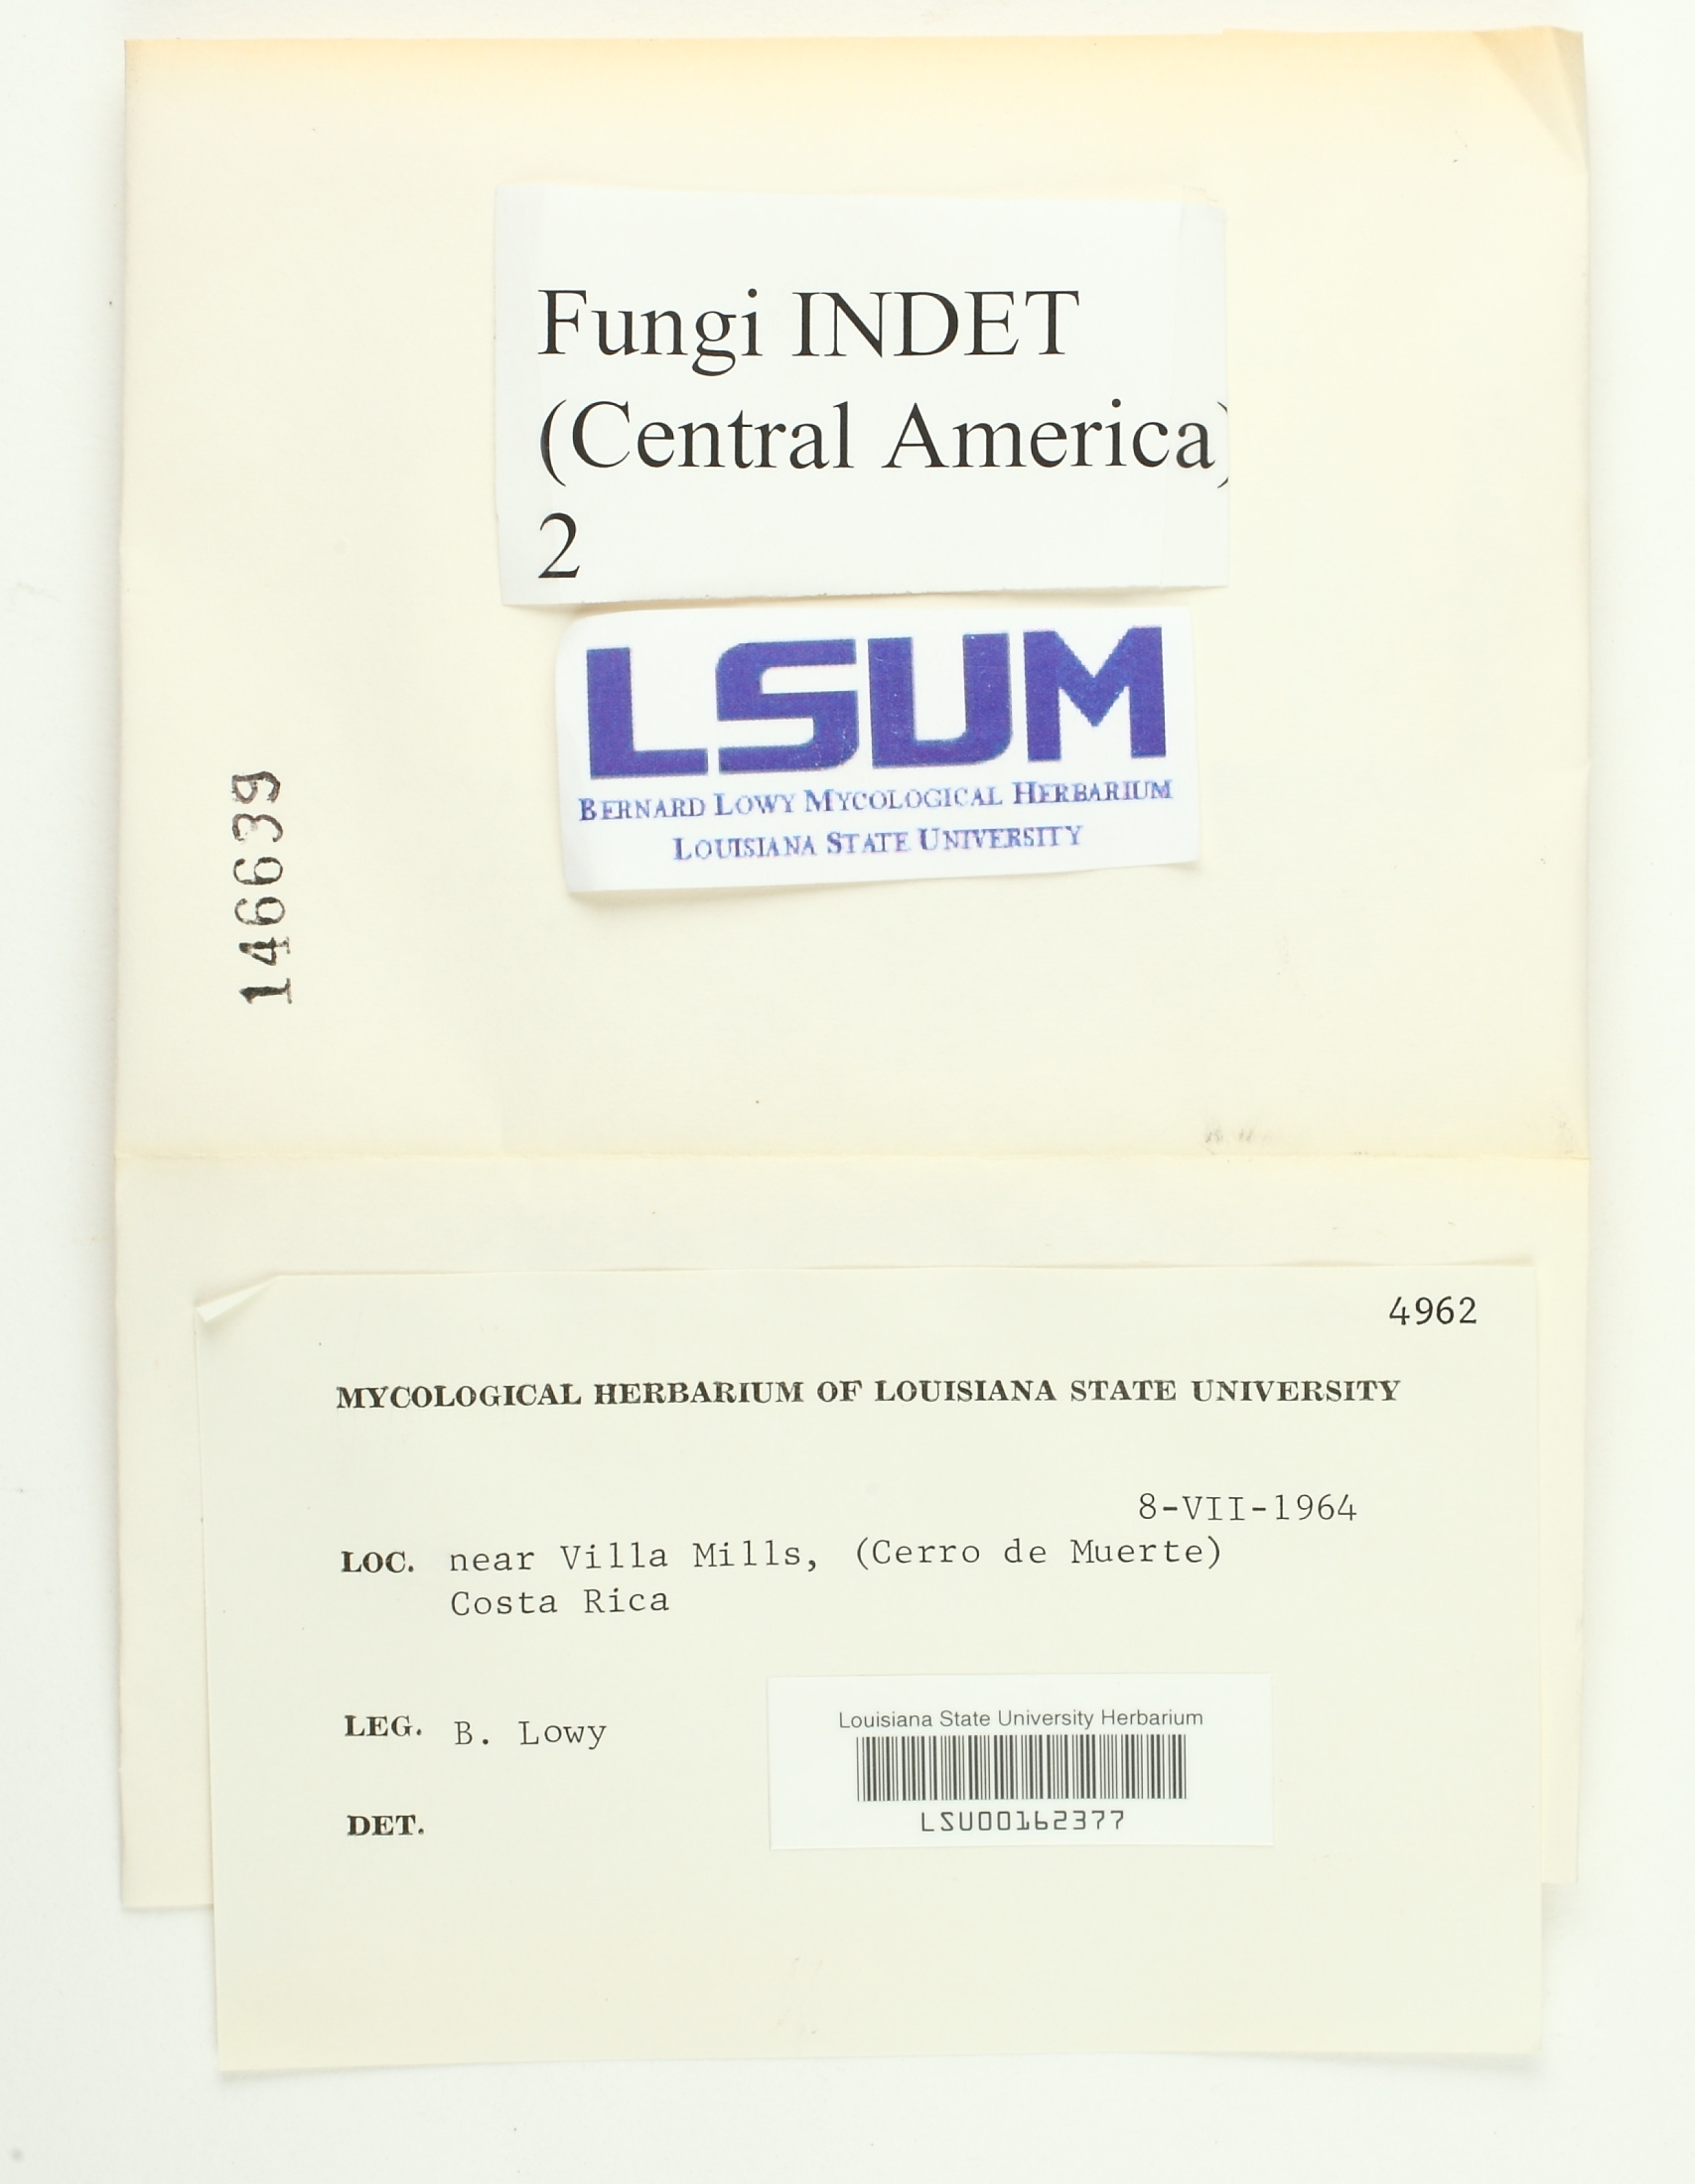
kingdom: Fungi
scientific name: Fungi
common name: Fungi
